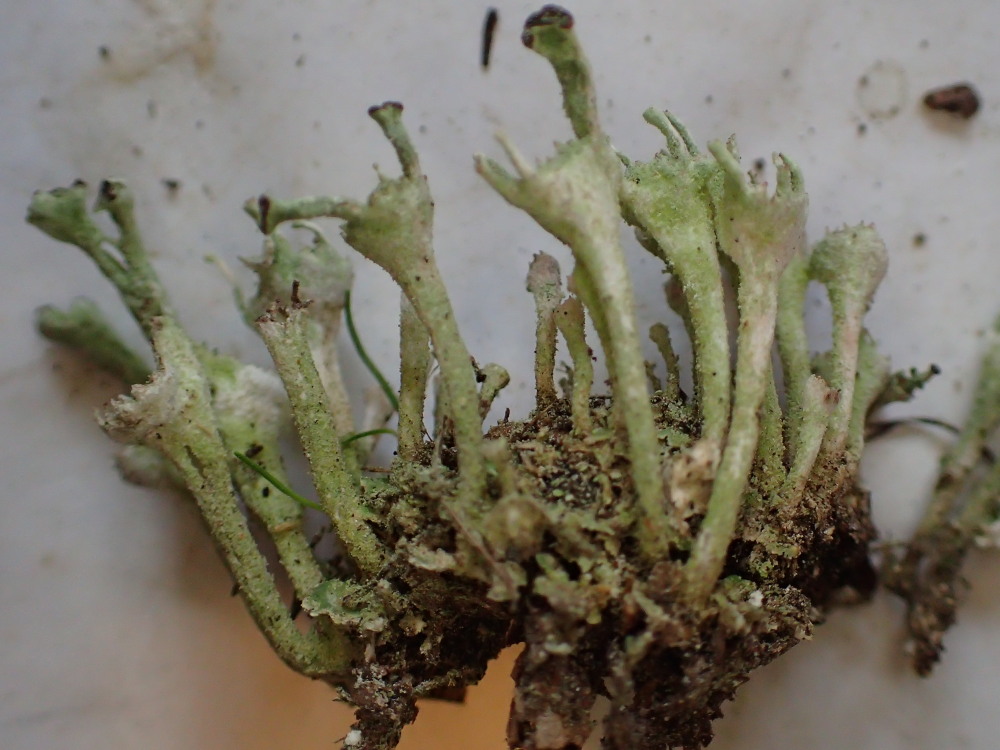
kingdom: Fungi
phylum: Ascomycota
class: Lecanoromycetes
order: Lecanorales
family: Cladoniaceae
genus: Cladonia
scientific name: Cladonia fimbriata
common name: bleggrøn bægerlav
